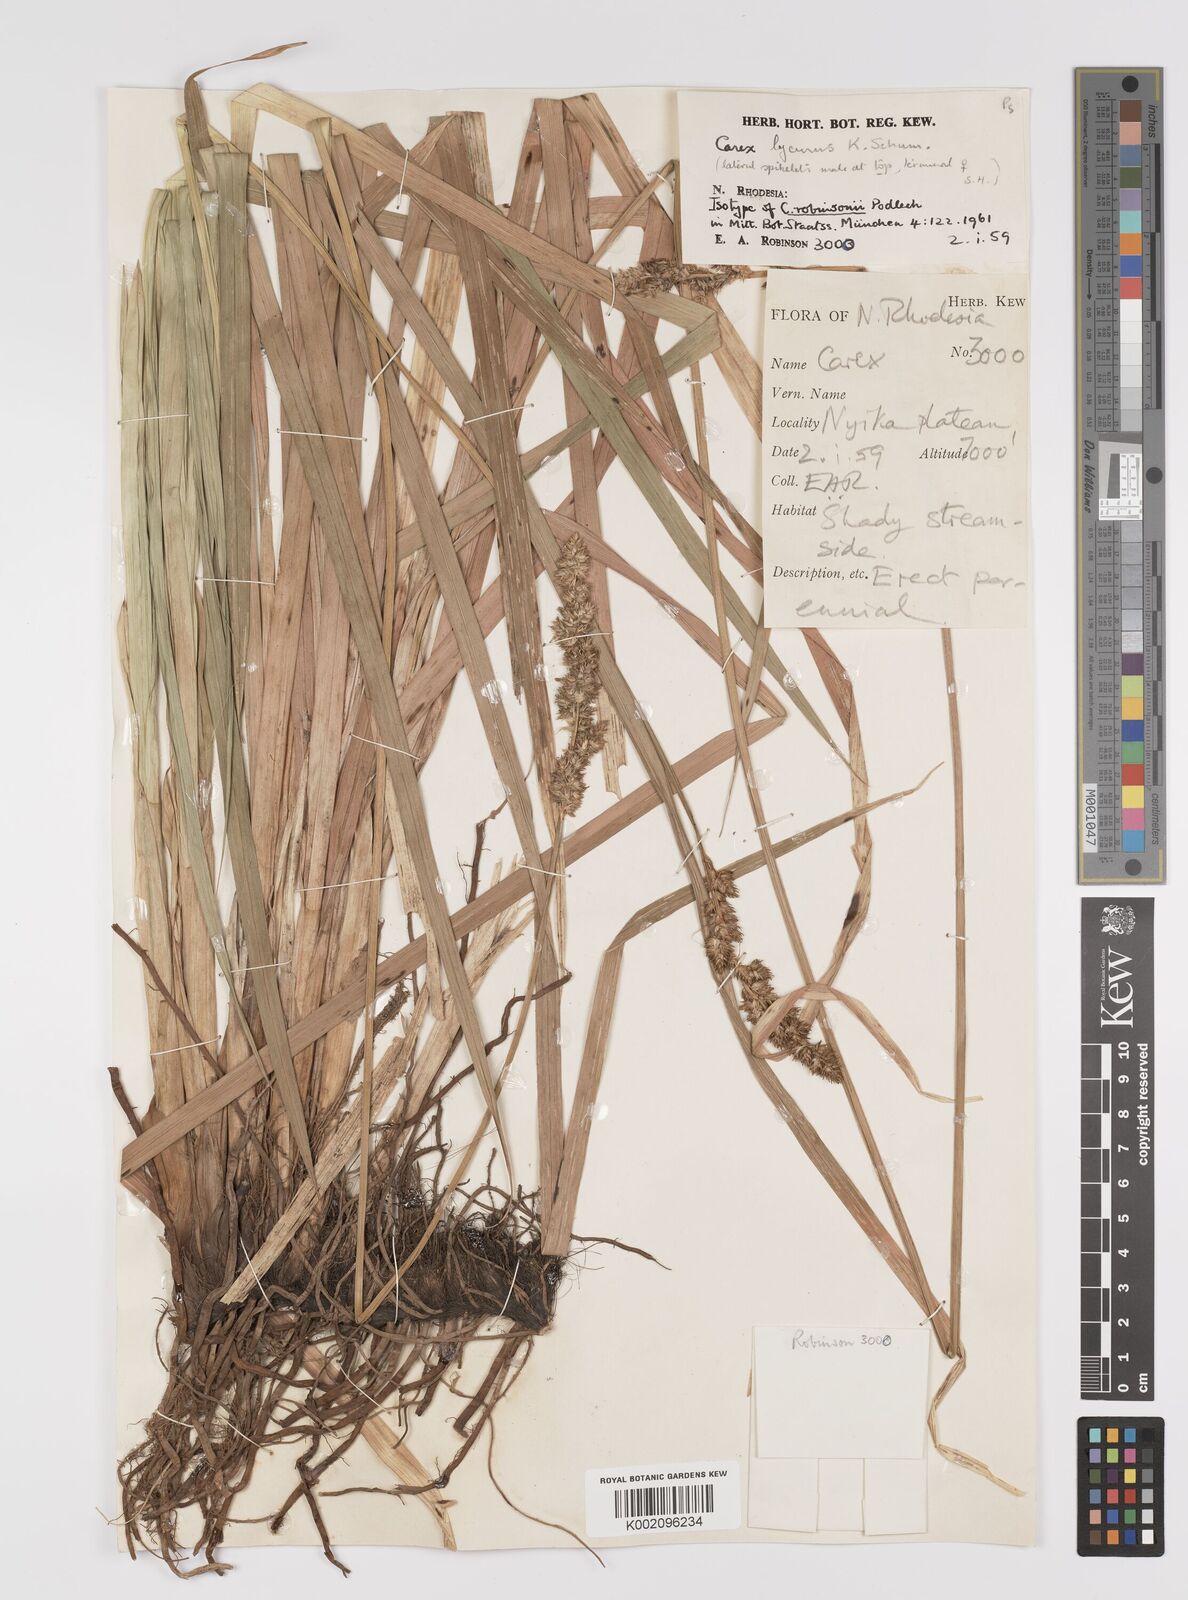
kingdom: Plantae
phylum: Tracheophyta
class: Liliopsida
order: Poales
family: Cyperaceae
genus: Carex
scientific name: Carex lycurus
